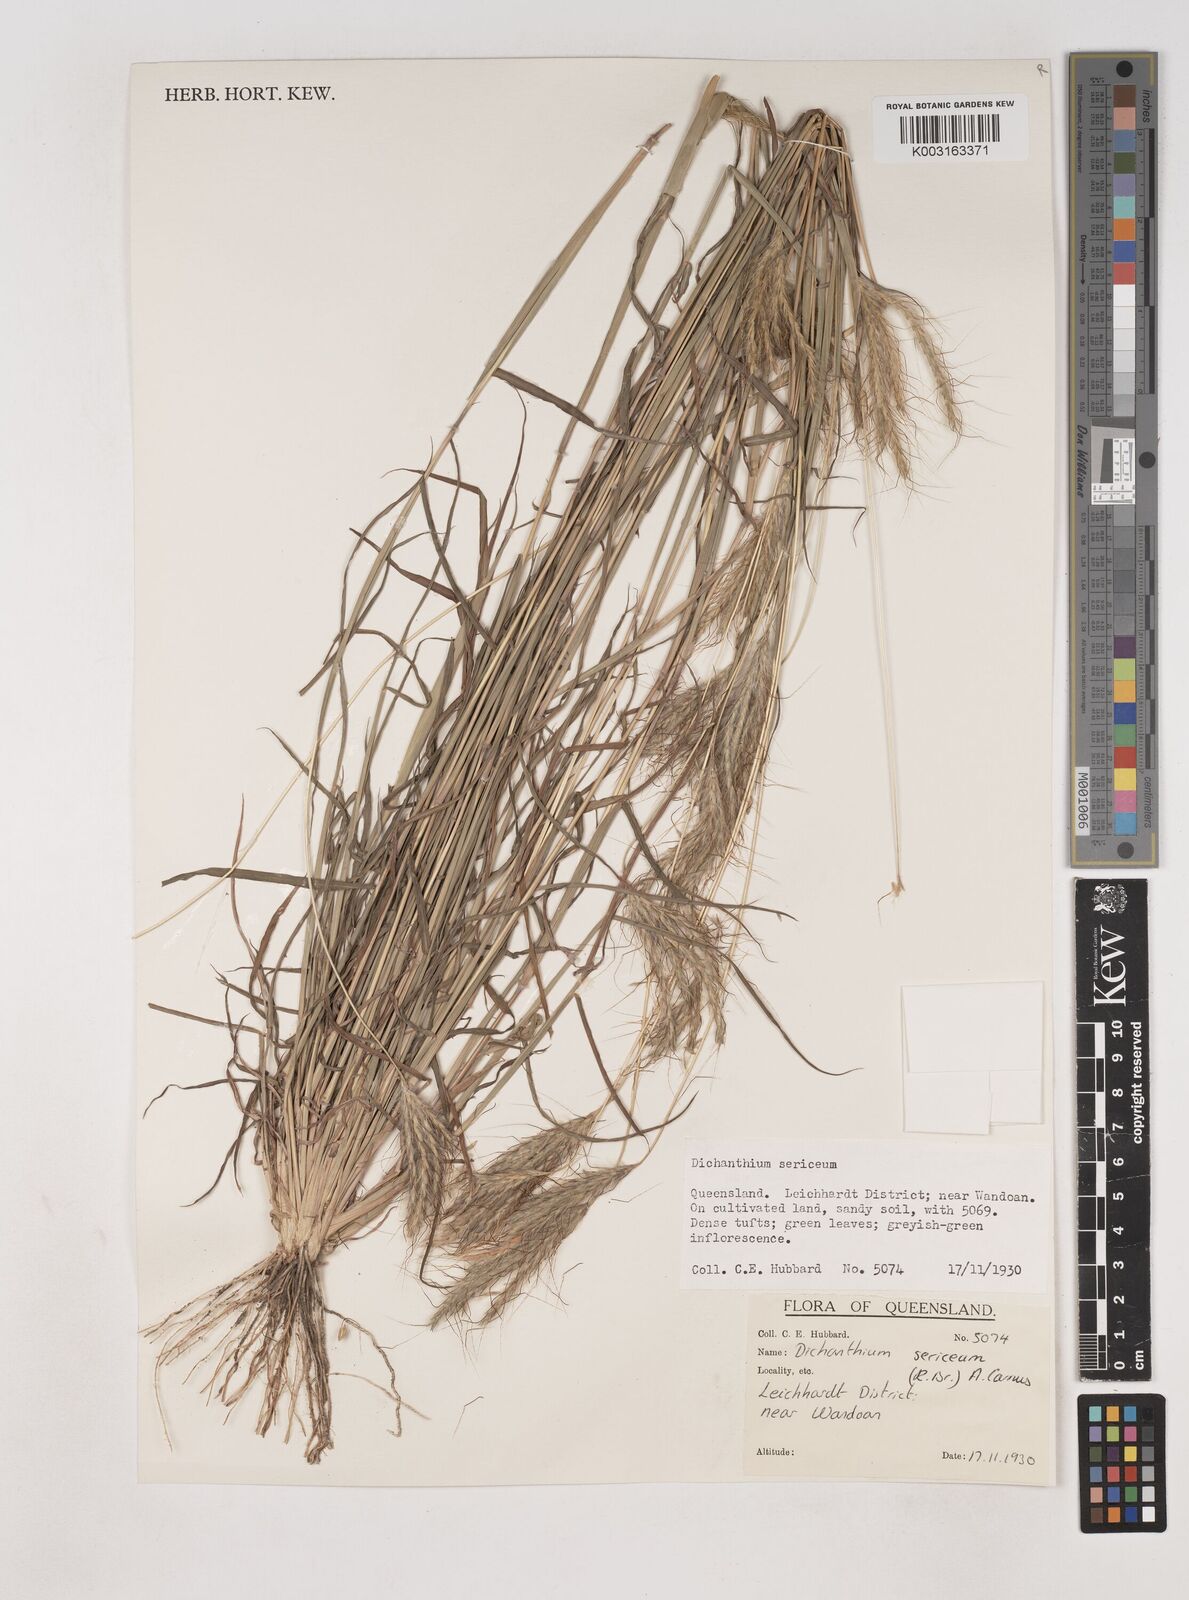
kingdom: Plantae
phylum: Tracheophyta
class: Liliopsida
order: Poales
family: Poaceae
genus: Dichanthium
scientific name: Dichanthium sericeum
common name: Silky bluestem
